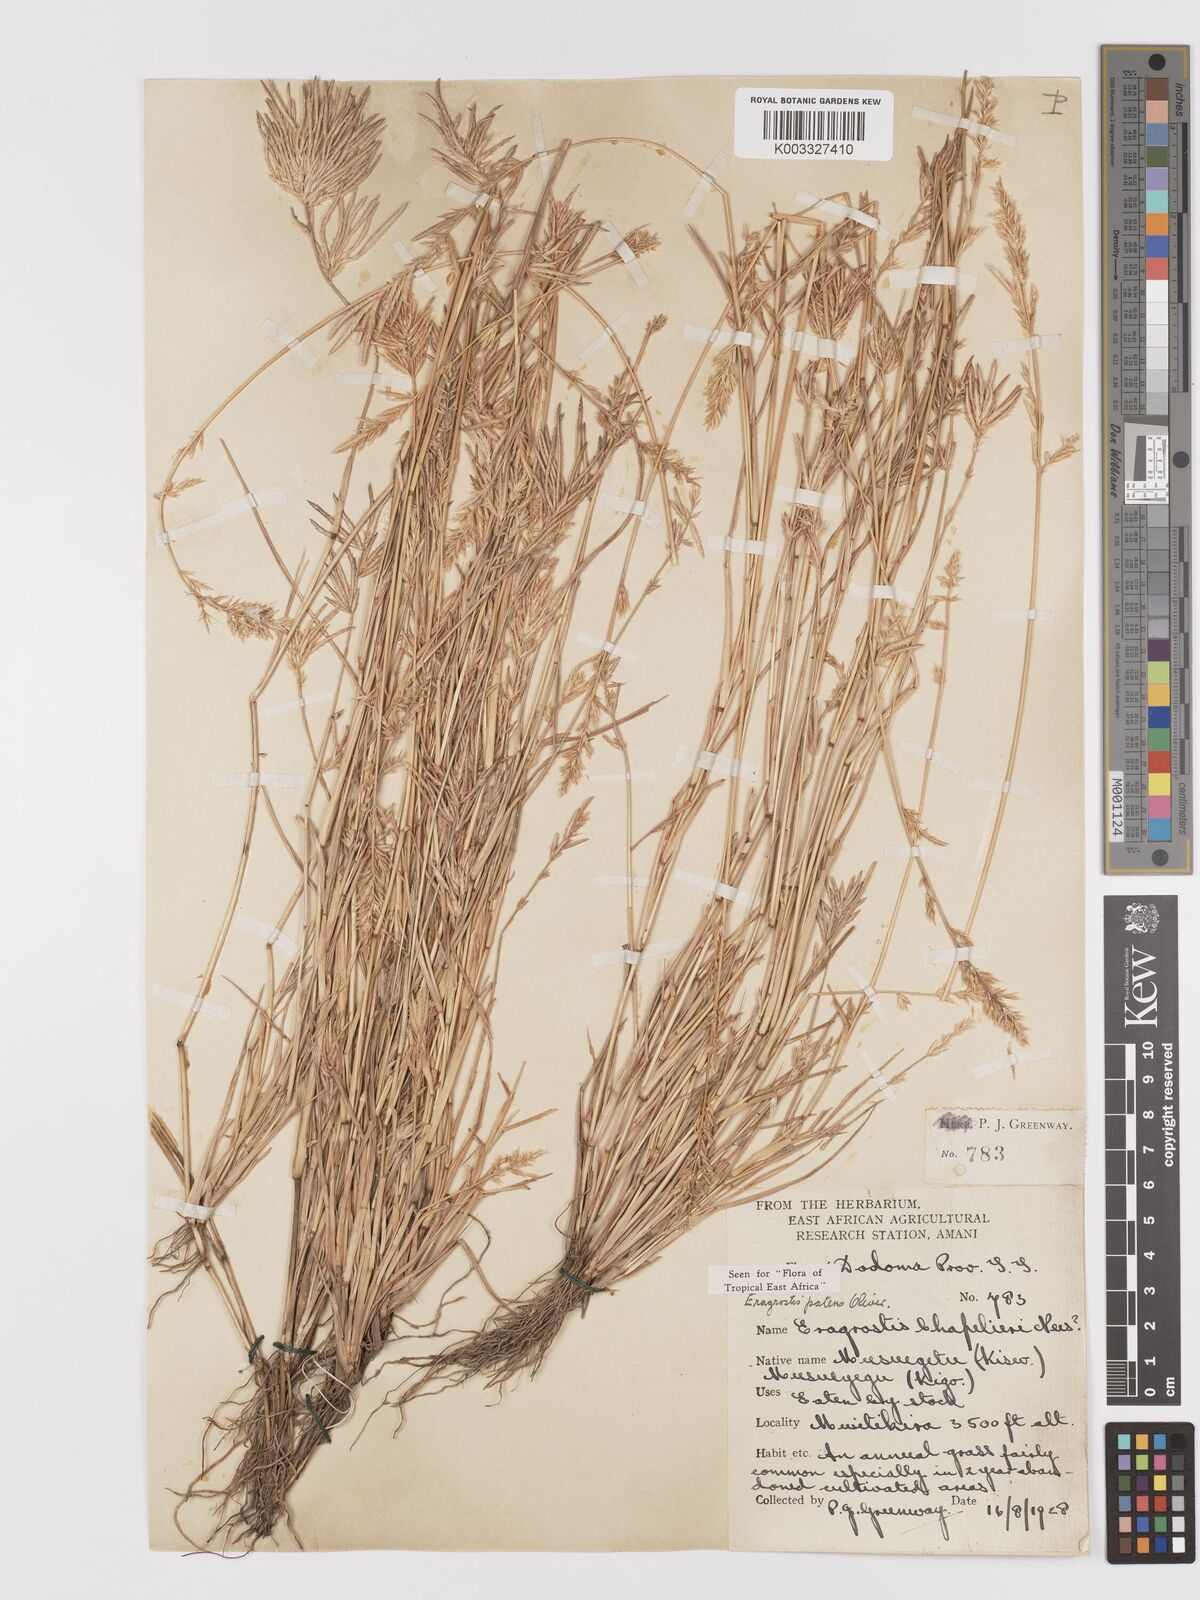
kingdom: Plantae
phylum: Tracheophyta
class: Liliopsida
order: Poales
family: Poaceae
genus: Eragrostis
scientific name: Eragrostis patens
